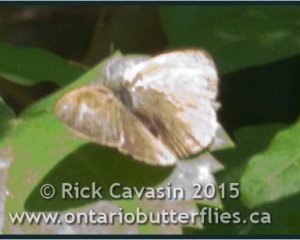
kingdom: Animalia
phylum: Arthropoda
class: Insecta
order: Lepidoptera
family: Nymphalidae
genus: Hermeuptychia
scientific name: Hermeuptychia hermes
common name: Carolina Satyr
